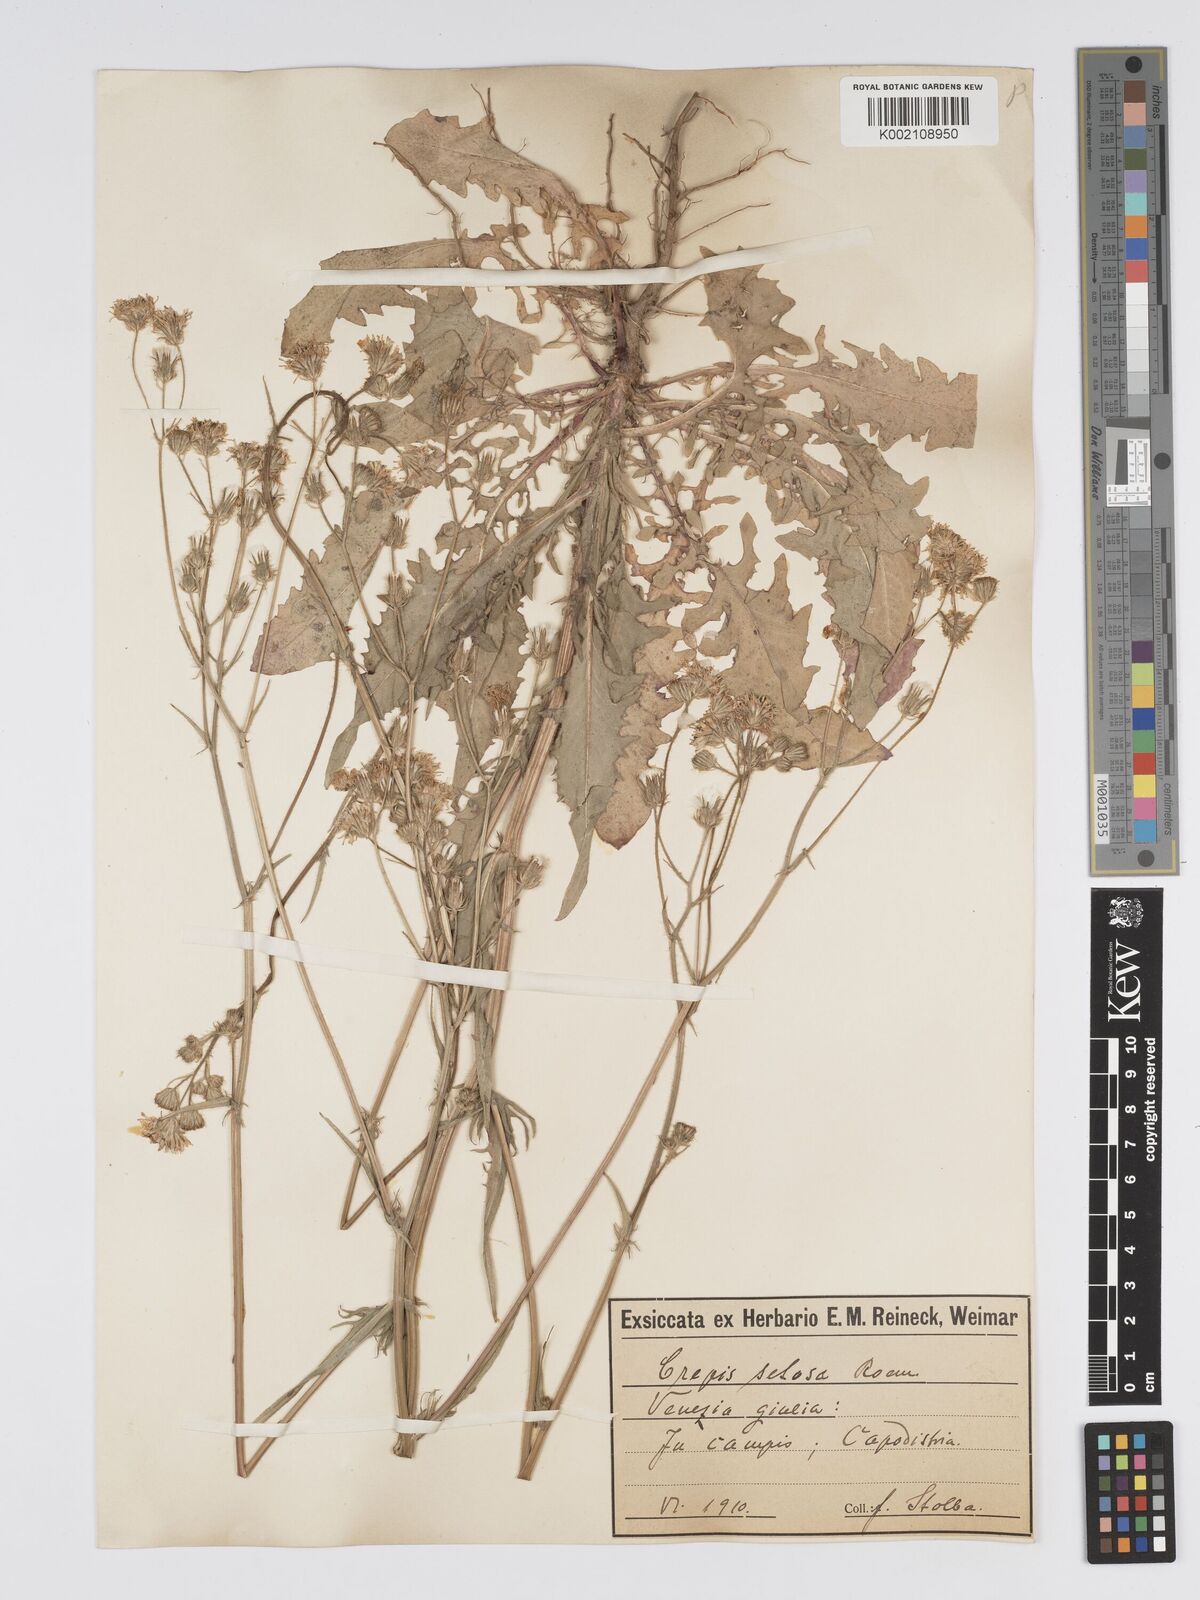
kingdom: Plantae
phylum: Tracheophyta
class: Magnoliopsida
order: Asterales
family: Asteraceae
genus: Crepis
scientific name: Crepis setosa
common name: Bristly hawk's-beard
